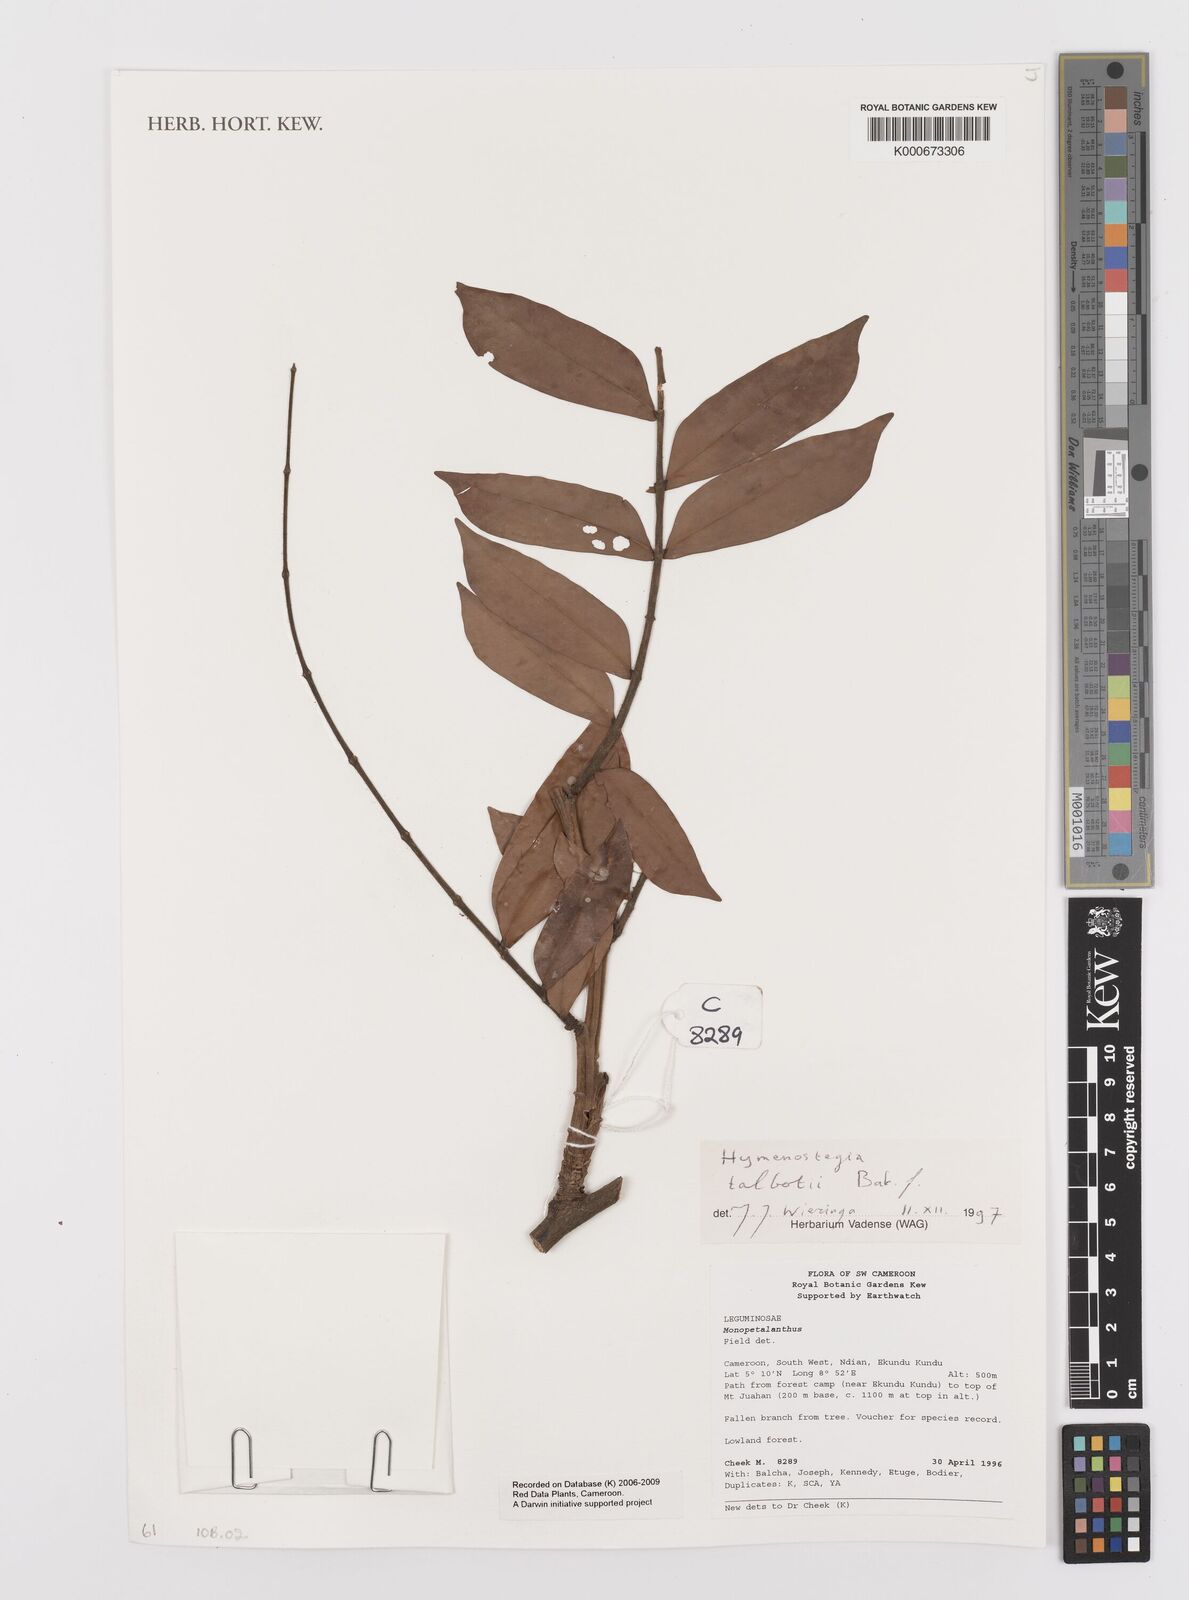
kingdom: Plantae
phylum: Tracheophyta
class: Magnoliopsida
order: Fabales
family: Fabaceae
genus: Hymenostegia
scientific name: Hymenostegia talbotii
